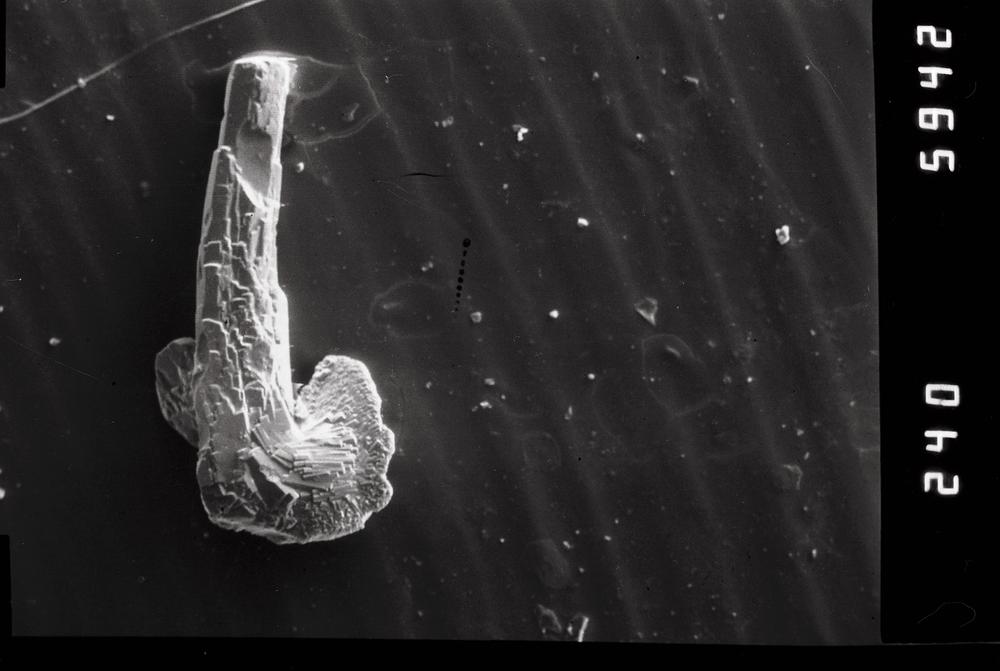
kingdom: Animalia
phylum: Chordata
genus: Paroistodus
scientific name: Paroistodus
